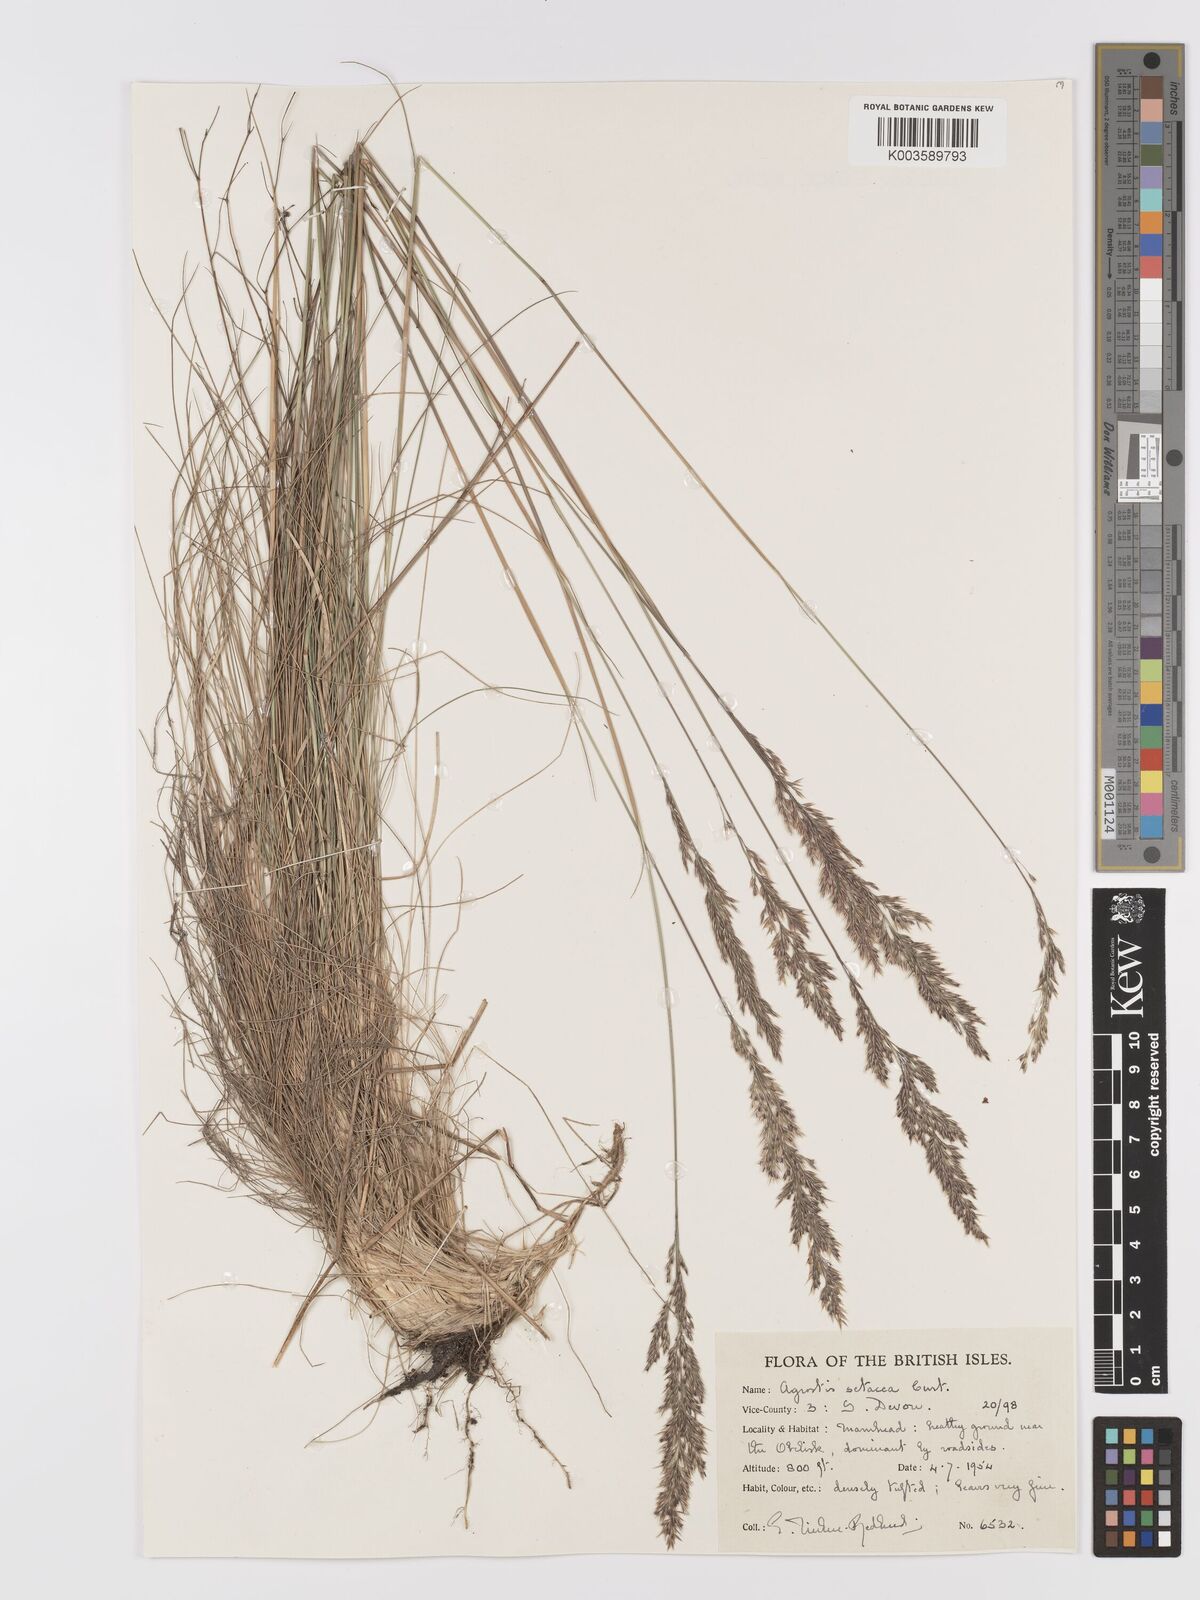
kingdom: Plantae
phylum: Tracheophyta
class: Liliopsida
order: Poales
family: Poaceae
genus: Alpagrostis
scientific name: Alpagrostis setacea
